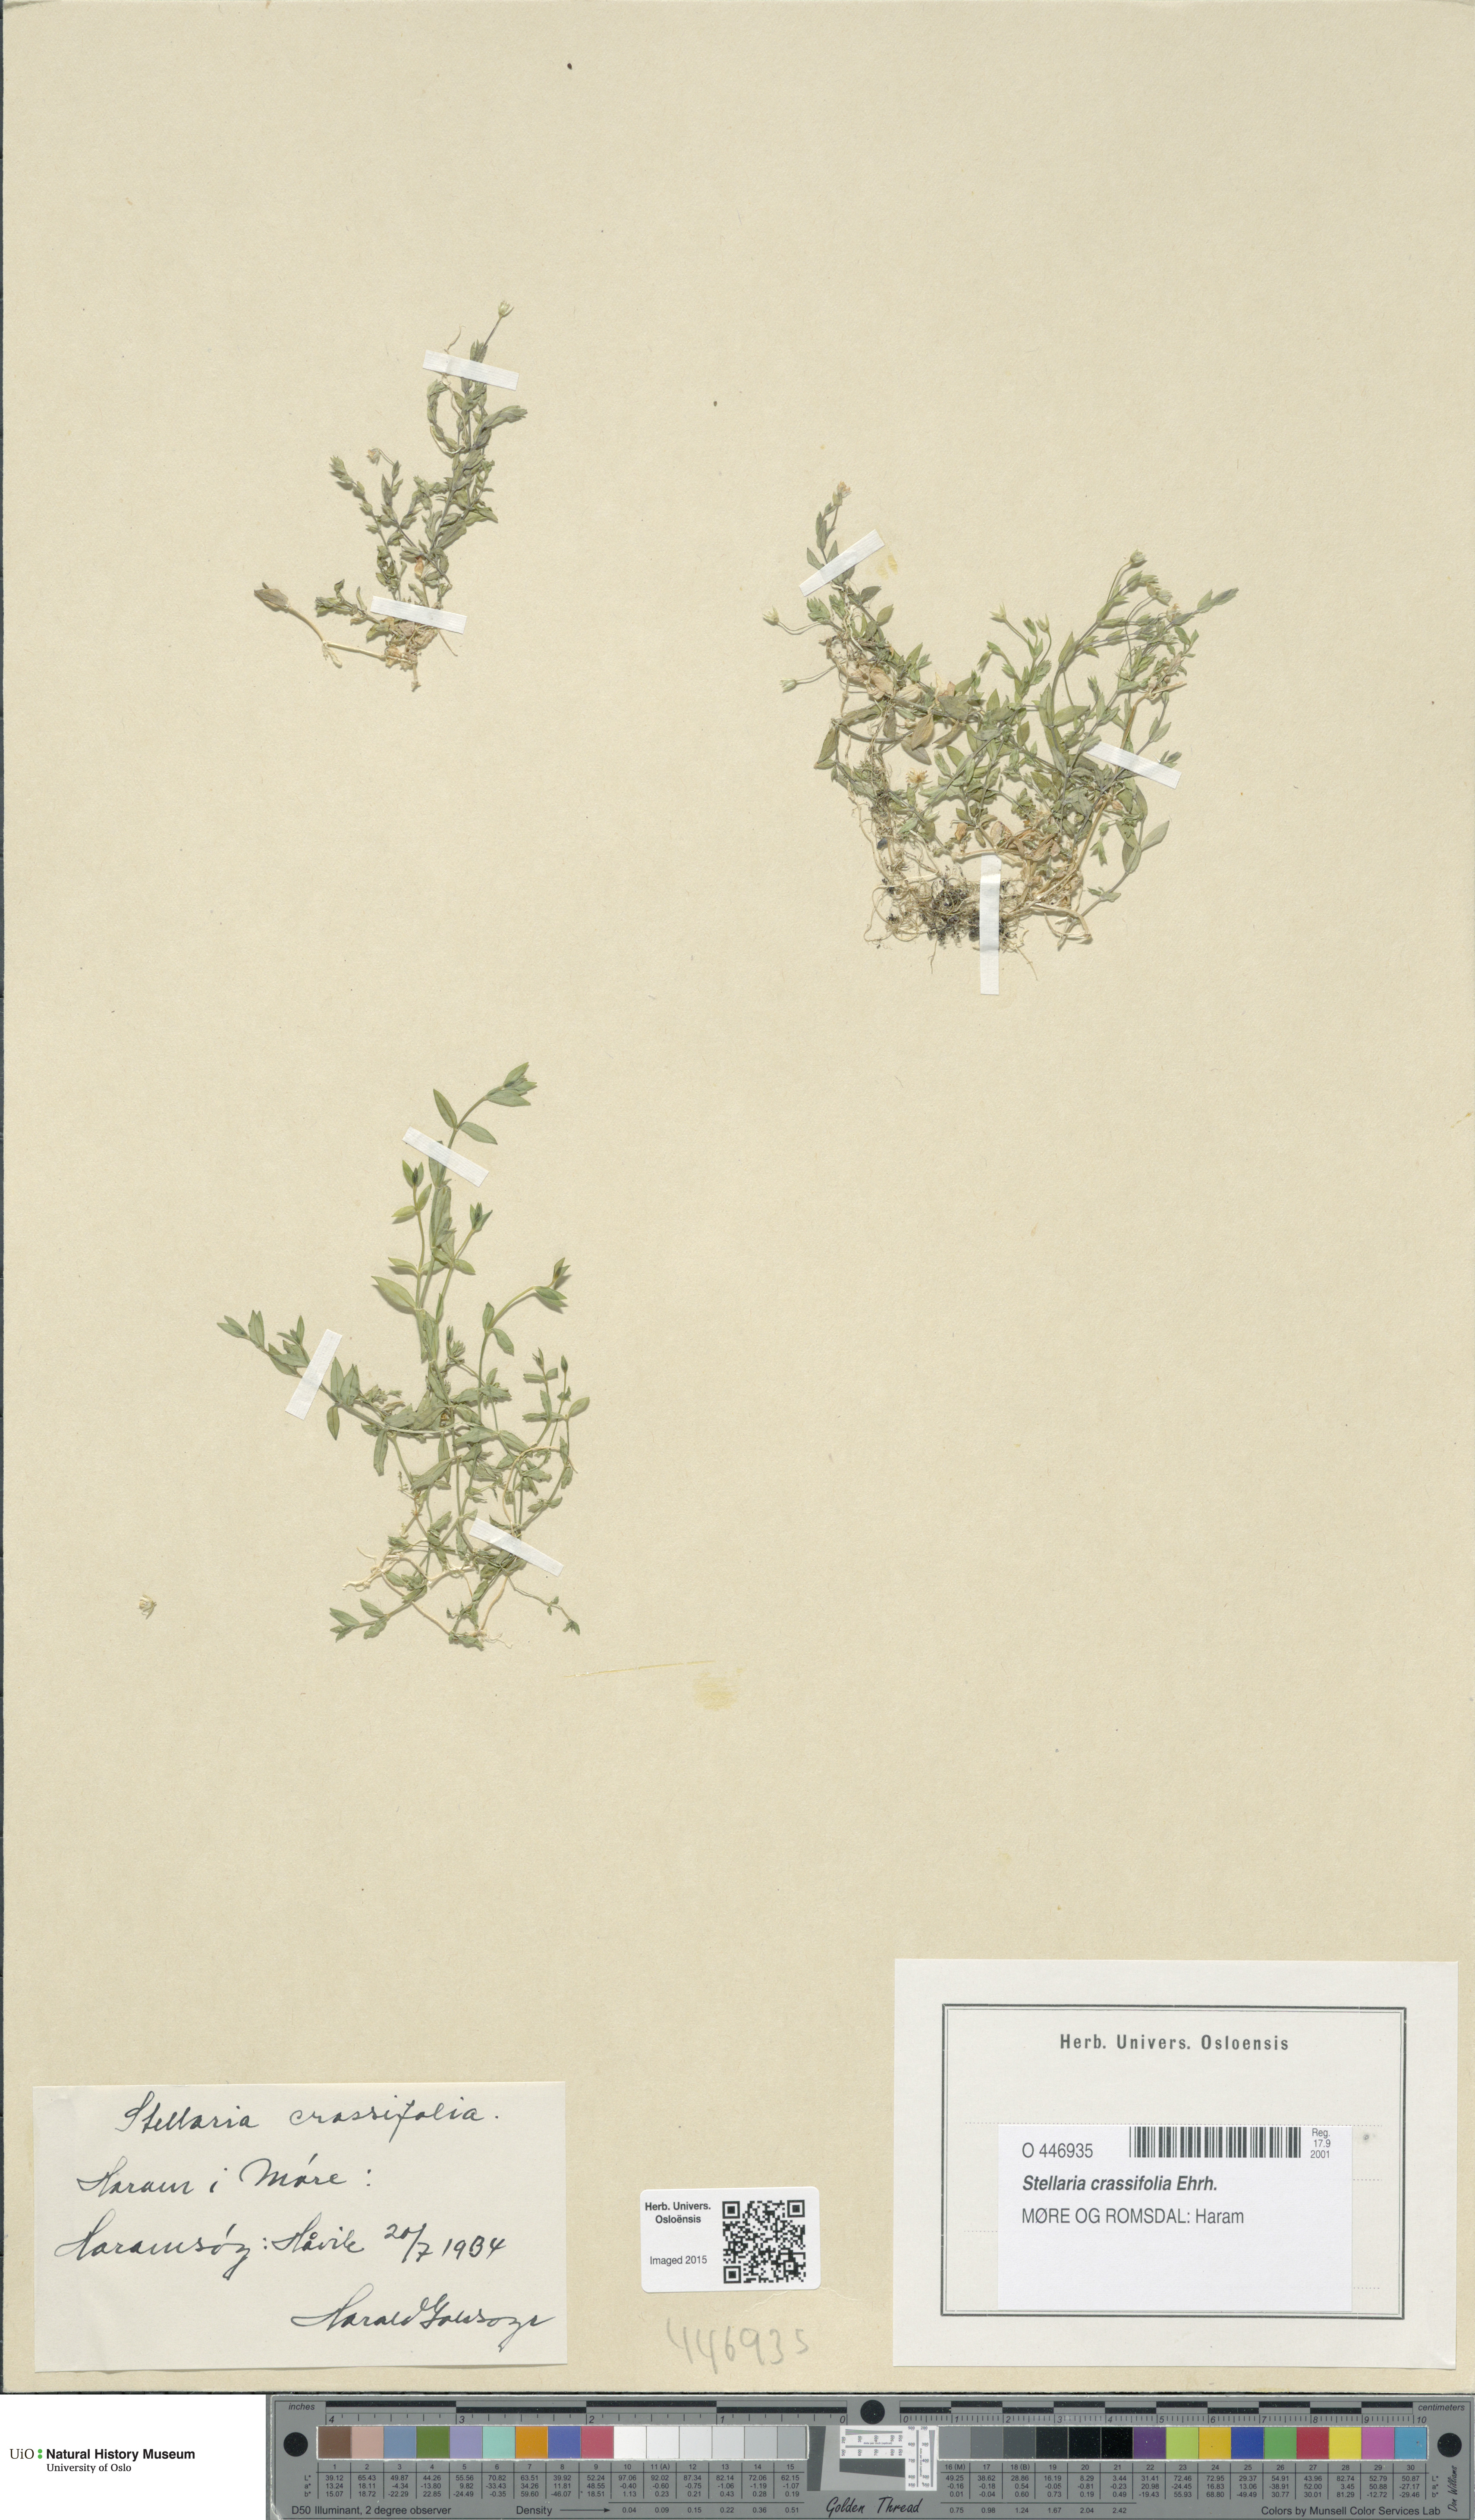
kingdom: Plantae
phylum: Tracheophyta
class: Magnoliopsida
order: Caryophyllales
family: Caryophyllaceae
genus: Stellaria
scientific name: Stellaria crassifolia
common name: Fleshy starwort
